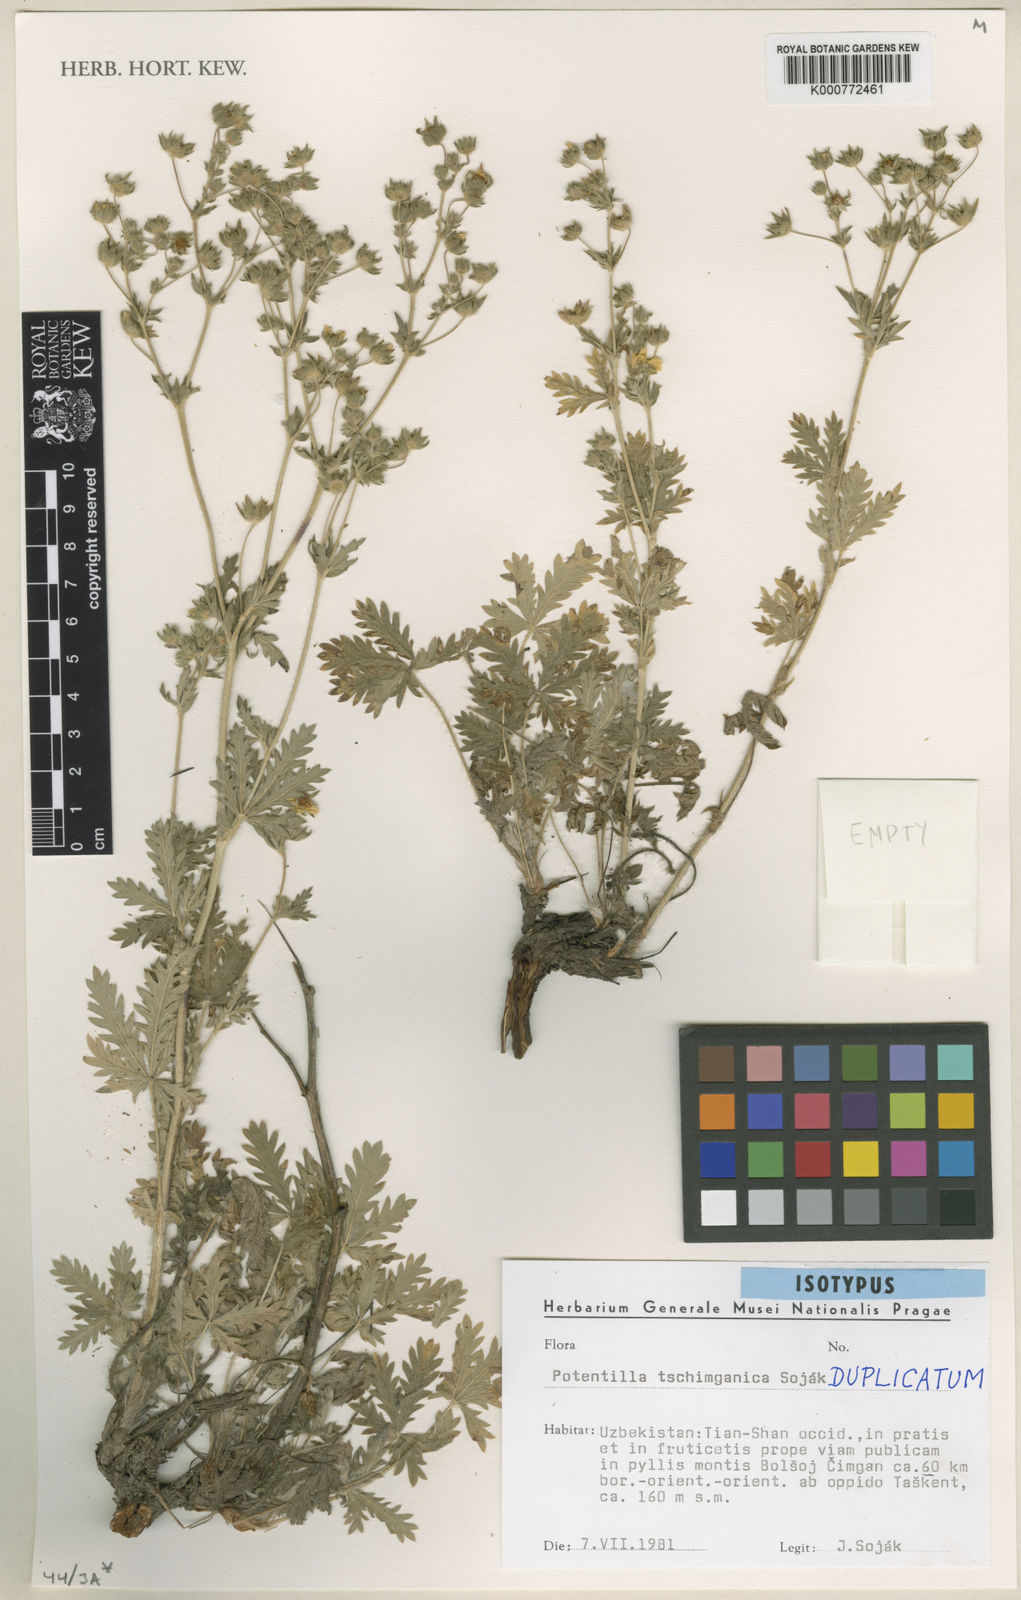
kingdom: Plantae
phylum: Tracheophyta
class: Magnoliopsida
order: Rosales
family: Rosaceae
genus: Potentilla
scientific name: Potentilla
